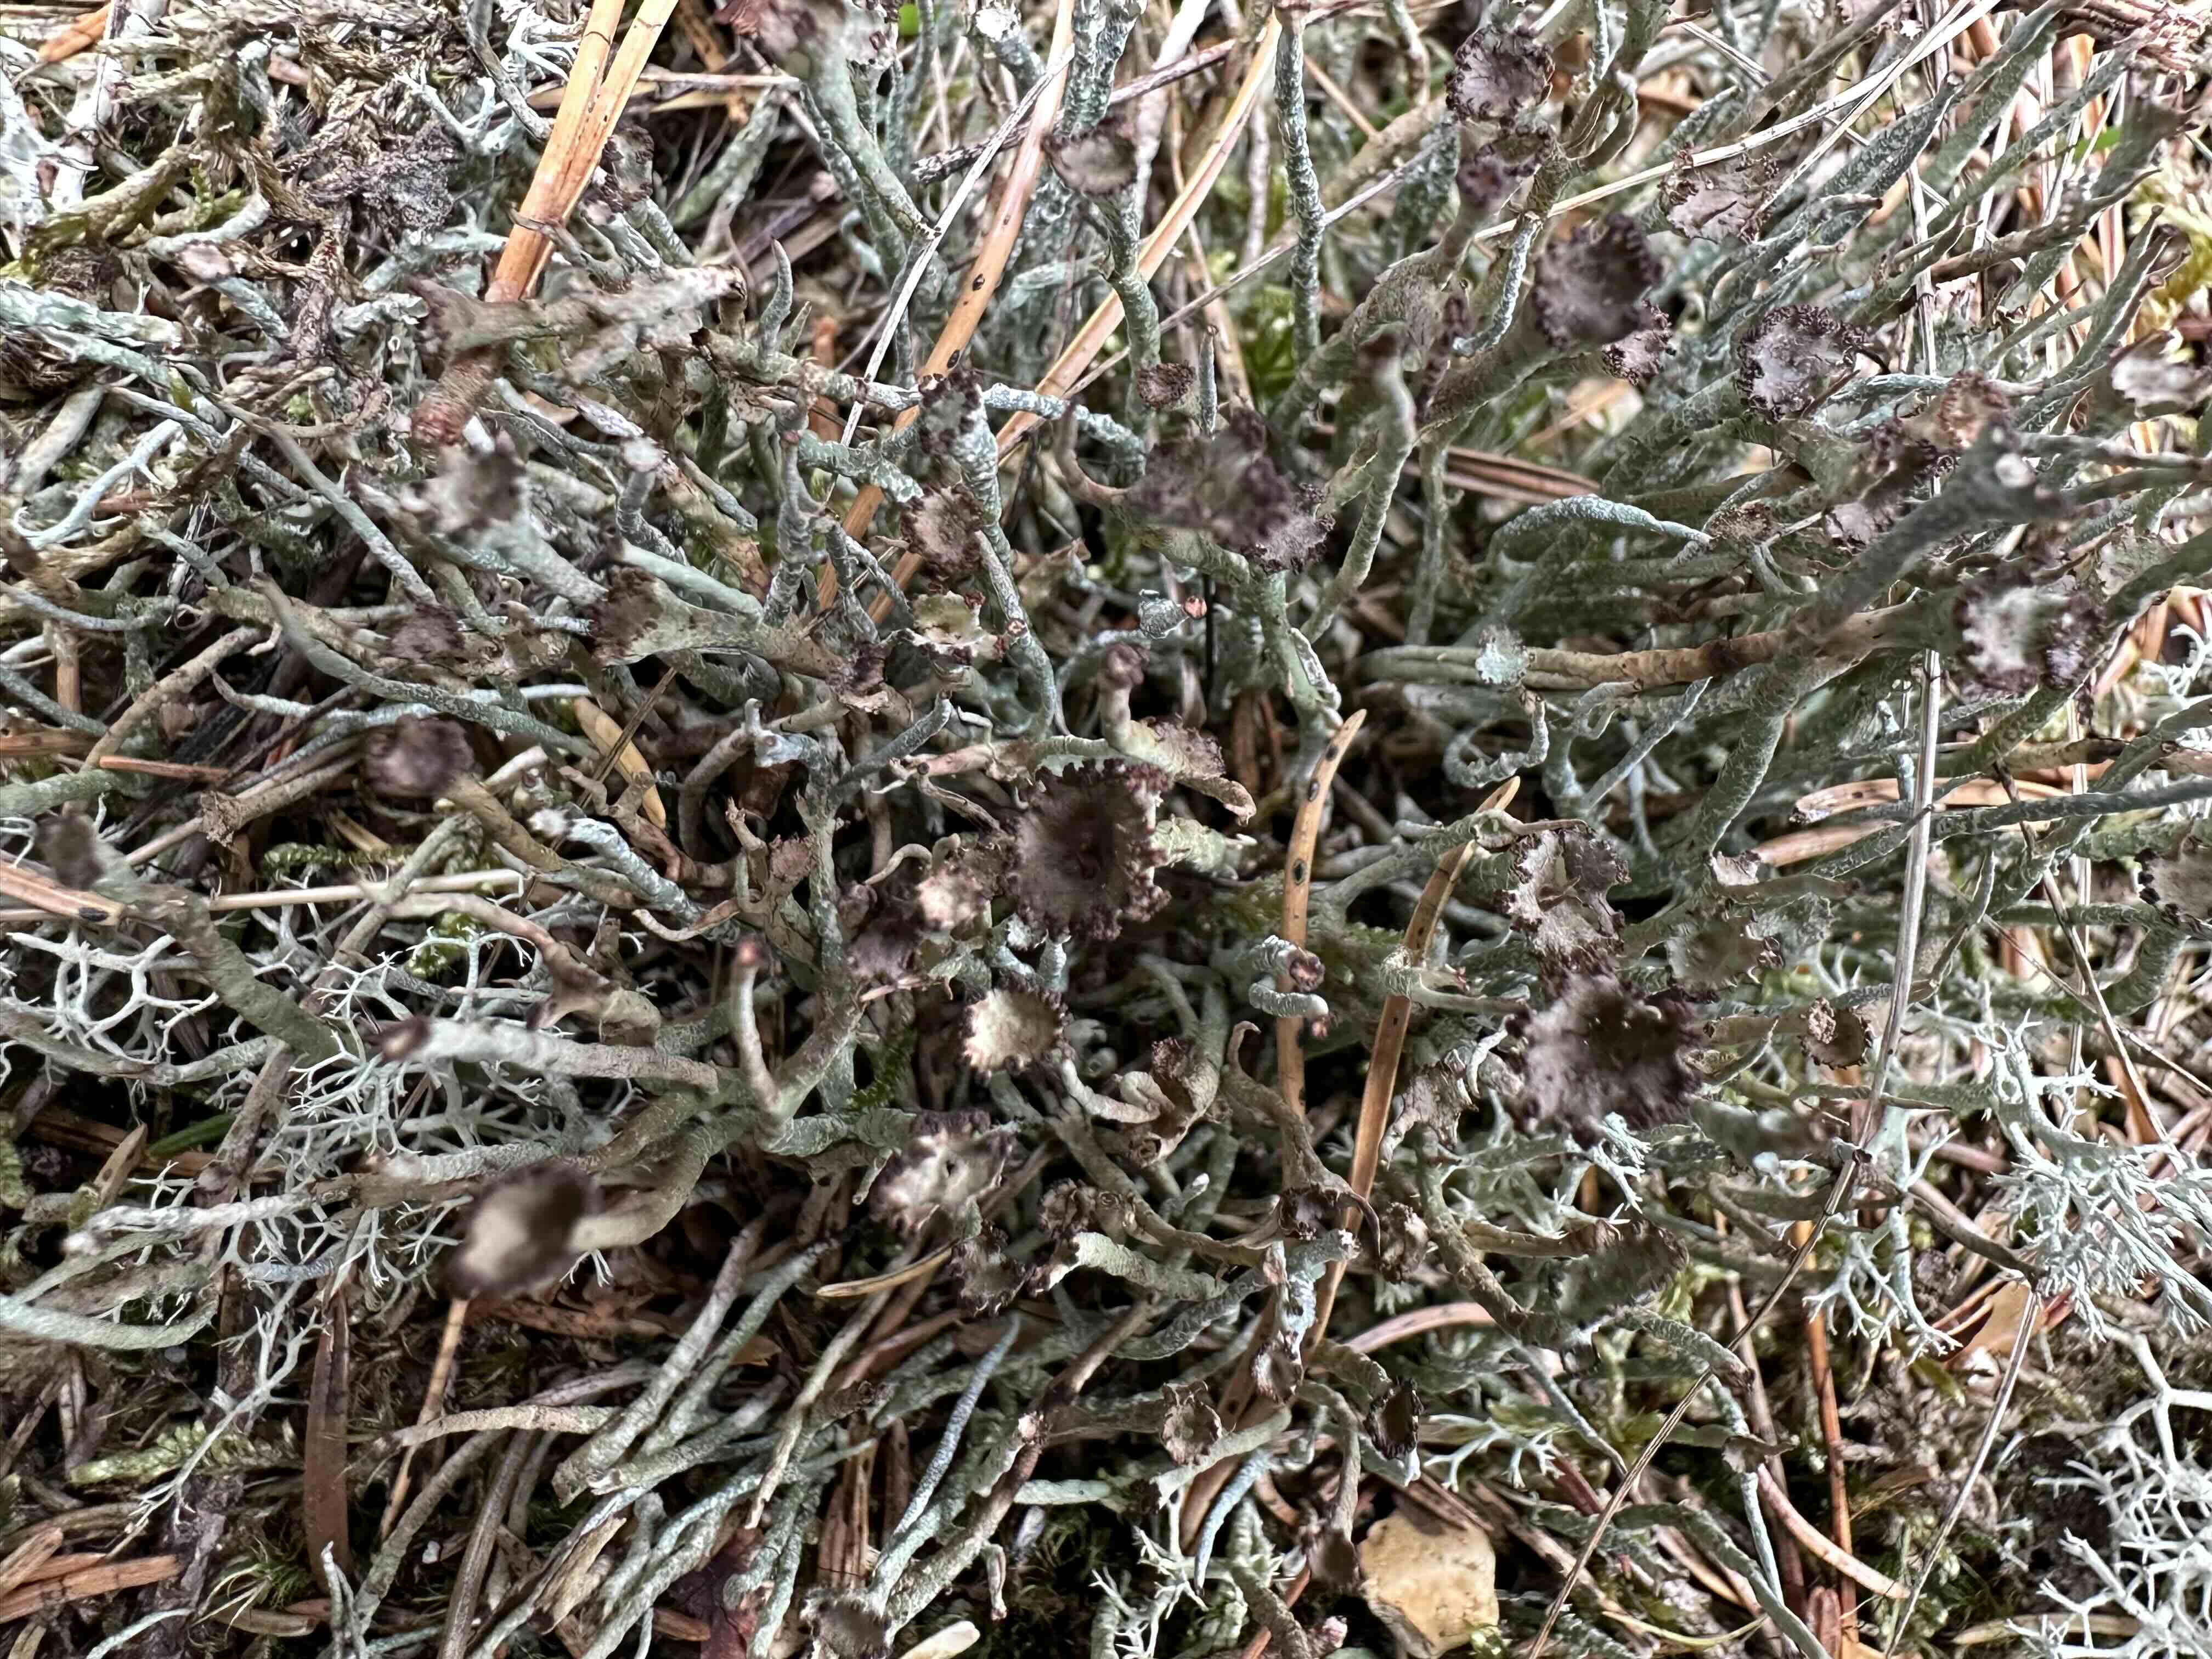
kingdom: Fungi
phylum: Ascomycota
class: Lecanoromycetes
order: Lecanorales
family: Cladoniaceae
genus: Cladonia
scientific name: Cladonia gracilis
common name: slank bægerlav
